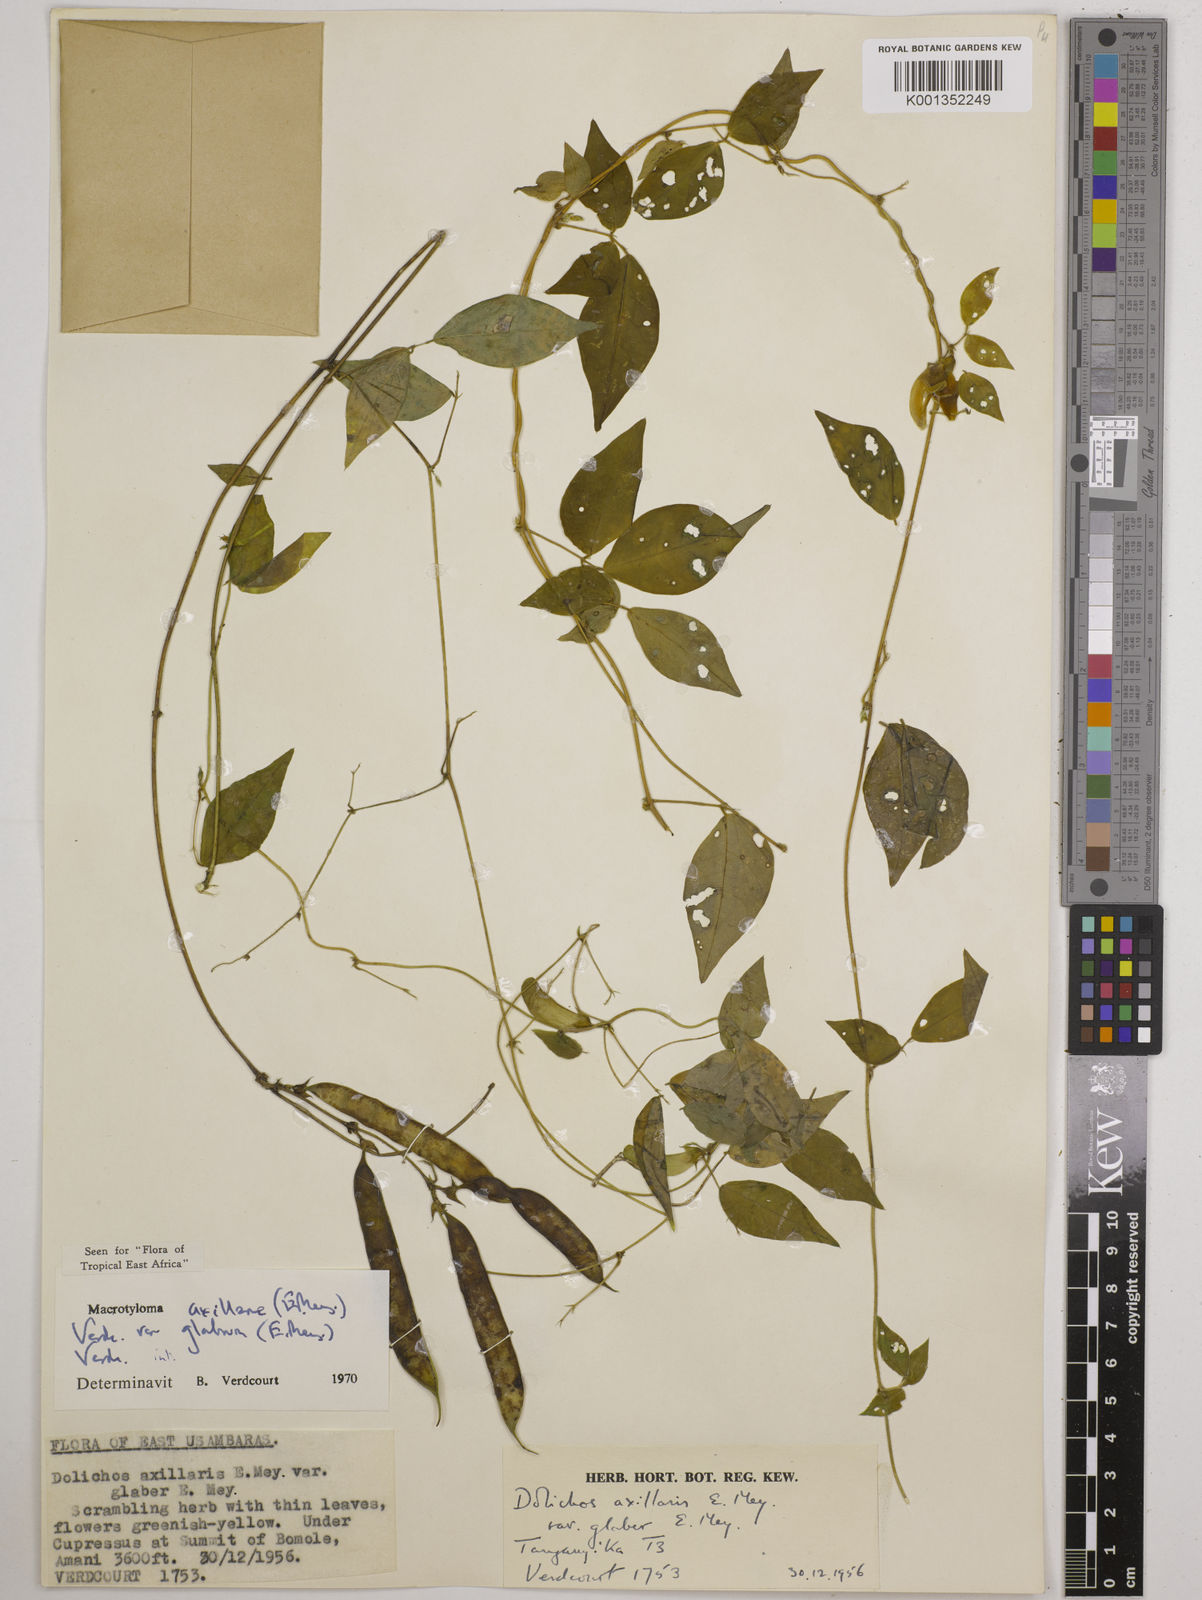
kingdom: Plantae
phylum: Tracheophyta
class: Magnoliopsida
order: Fabales
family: Fabaceae
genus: Macrotyloma
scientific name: Macrotyloma
